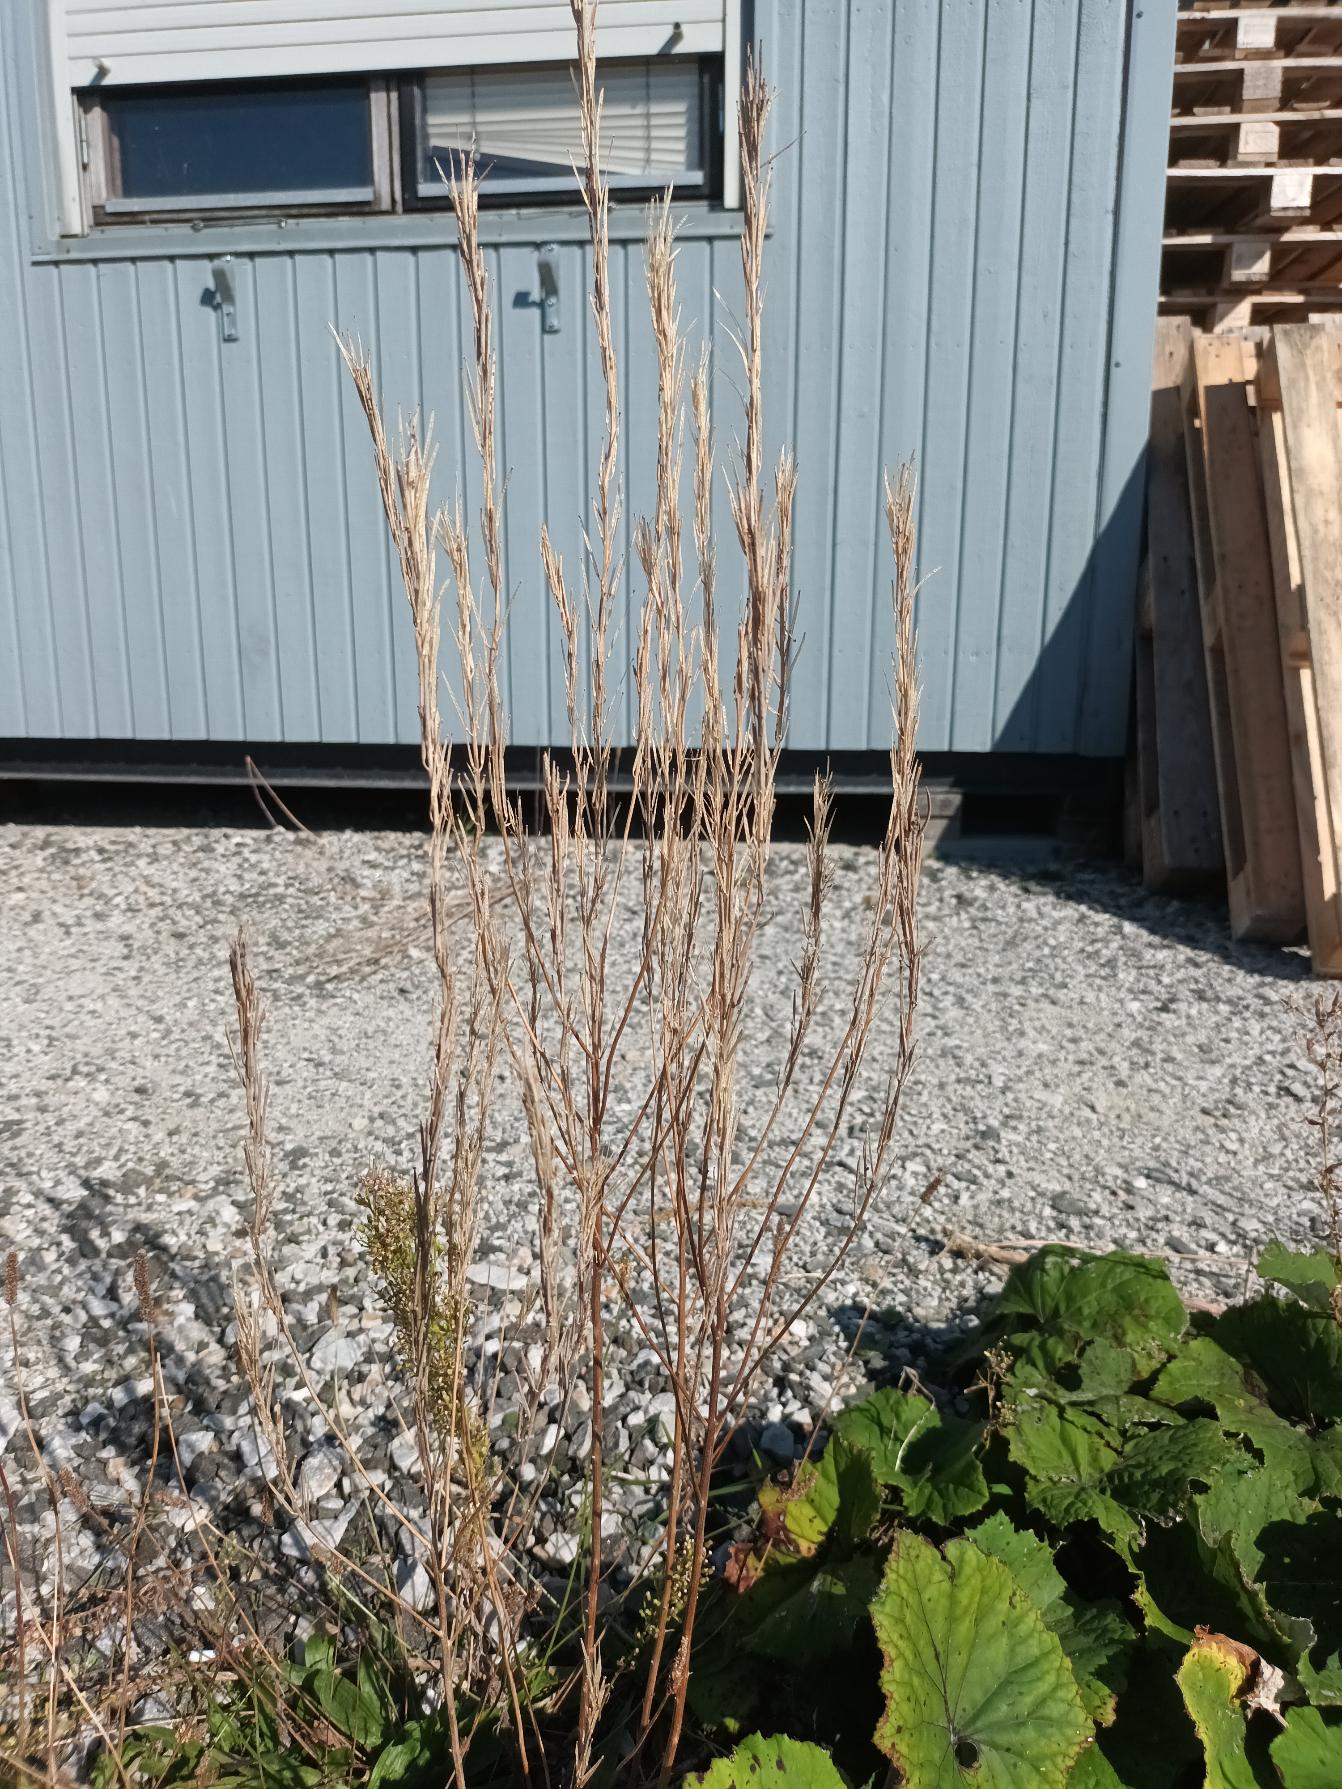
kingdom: Plantae
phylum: Tracheophyta
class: Magnoliopsida
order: Brassicales
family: Brassicaceae
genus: Erysimum
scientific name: Erysimum marschallianum
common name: Hård hjørneklap
